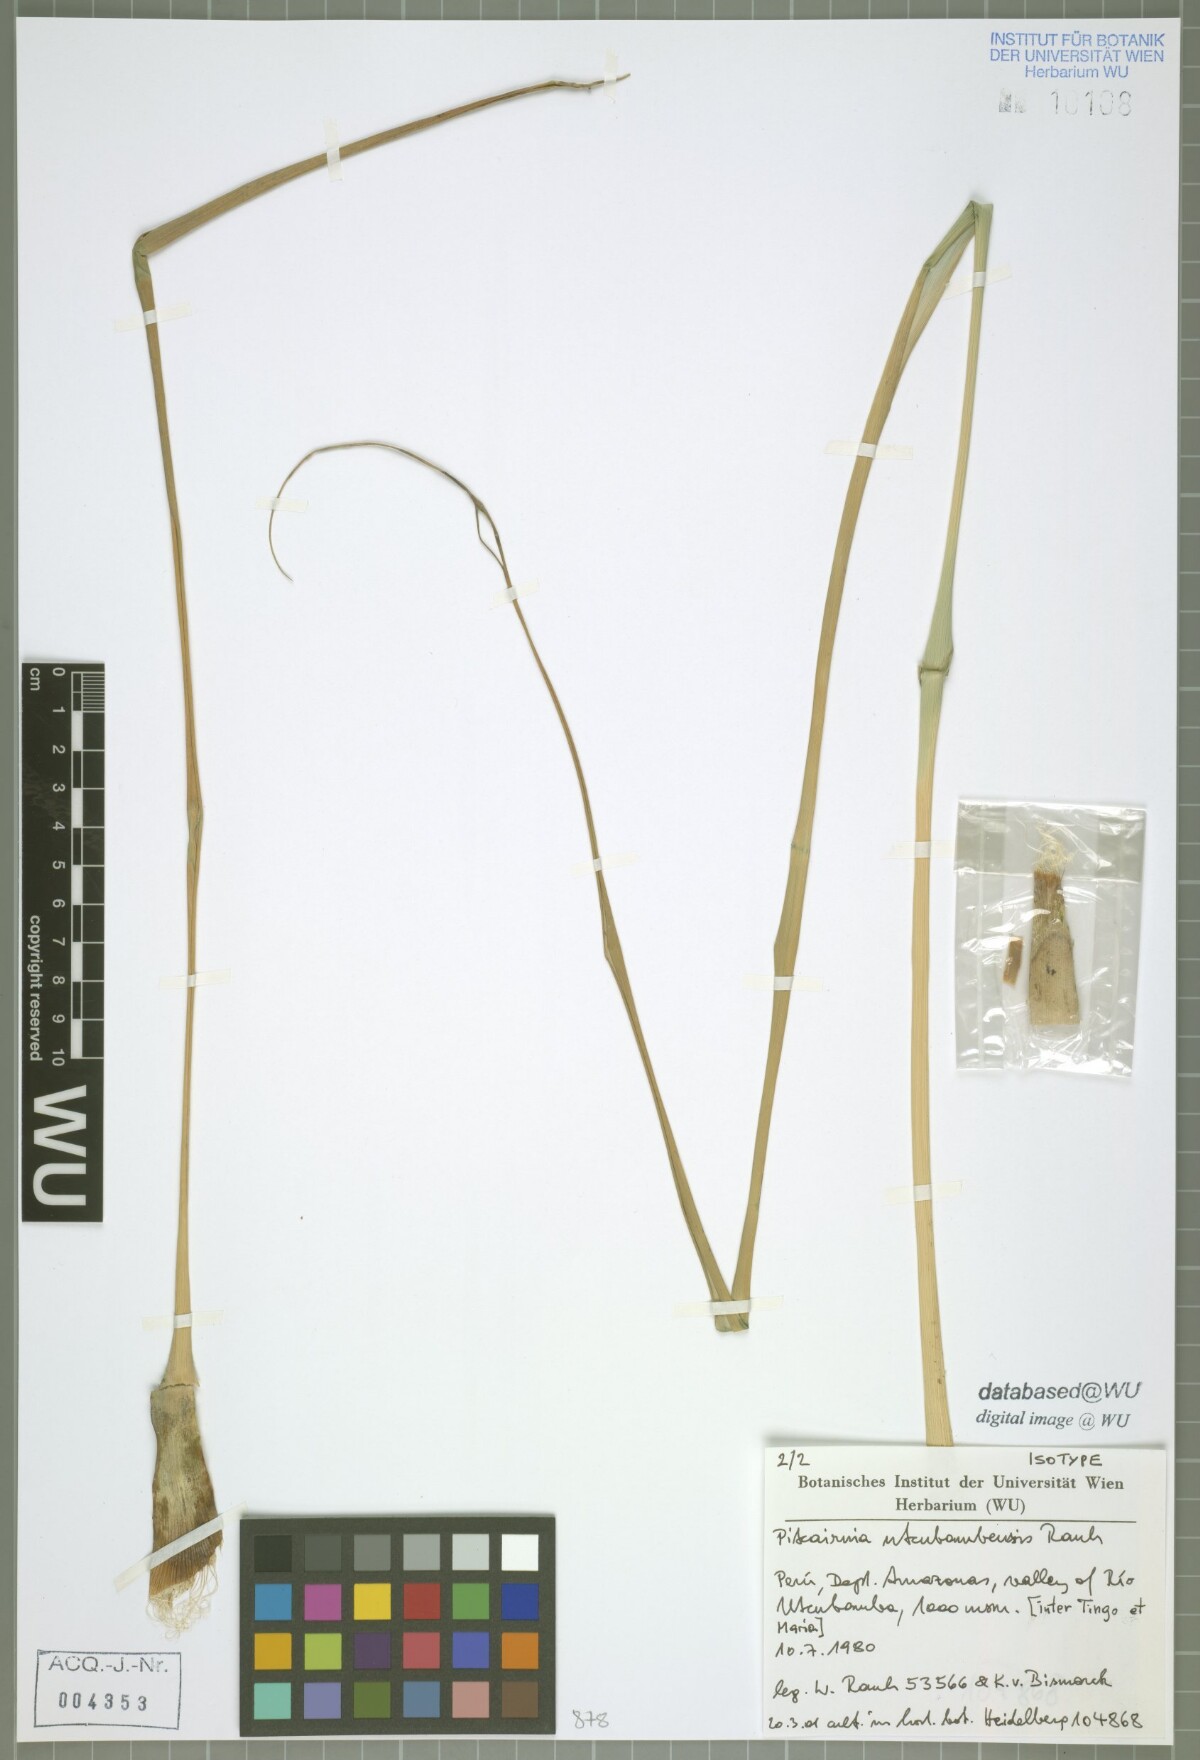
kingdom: Plantae
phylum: Tracheophyta
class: Liliopsida
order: Poales
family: Bromeliaceae
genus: Pitcairnia
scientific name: Pitcairnia utcubambensis
